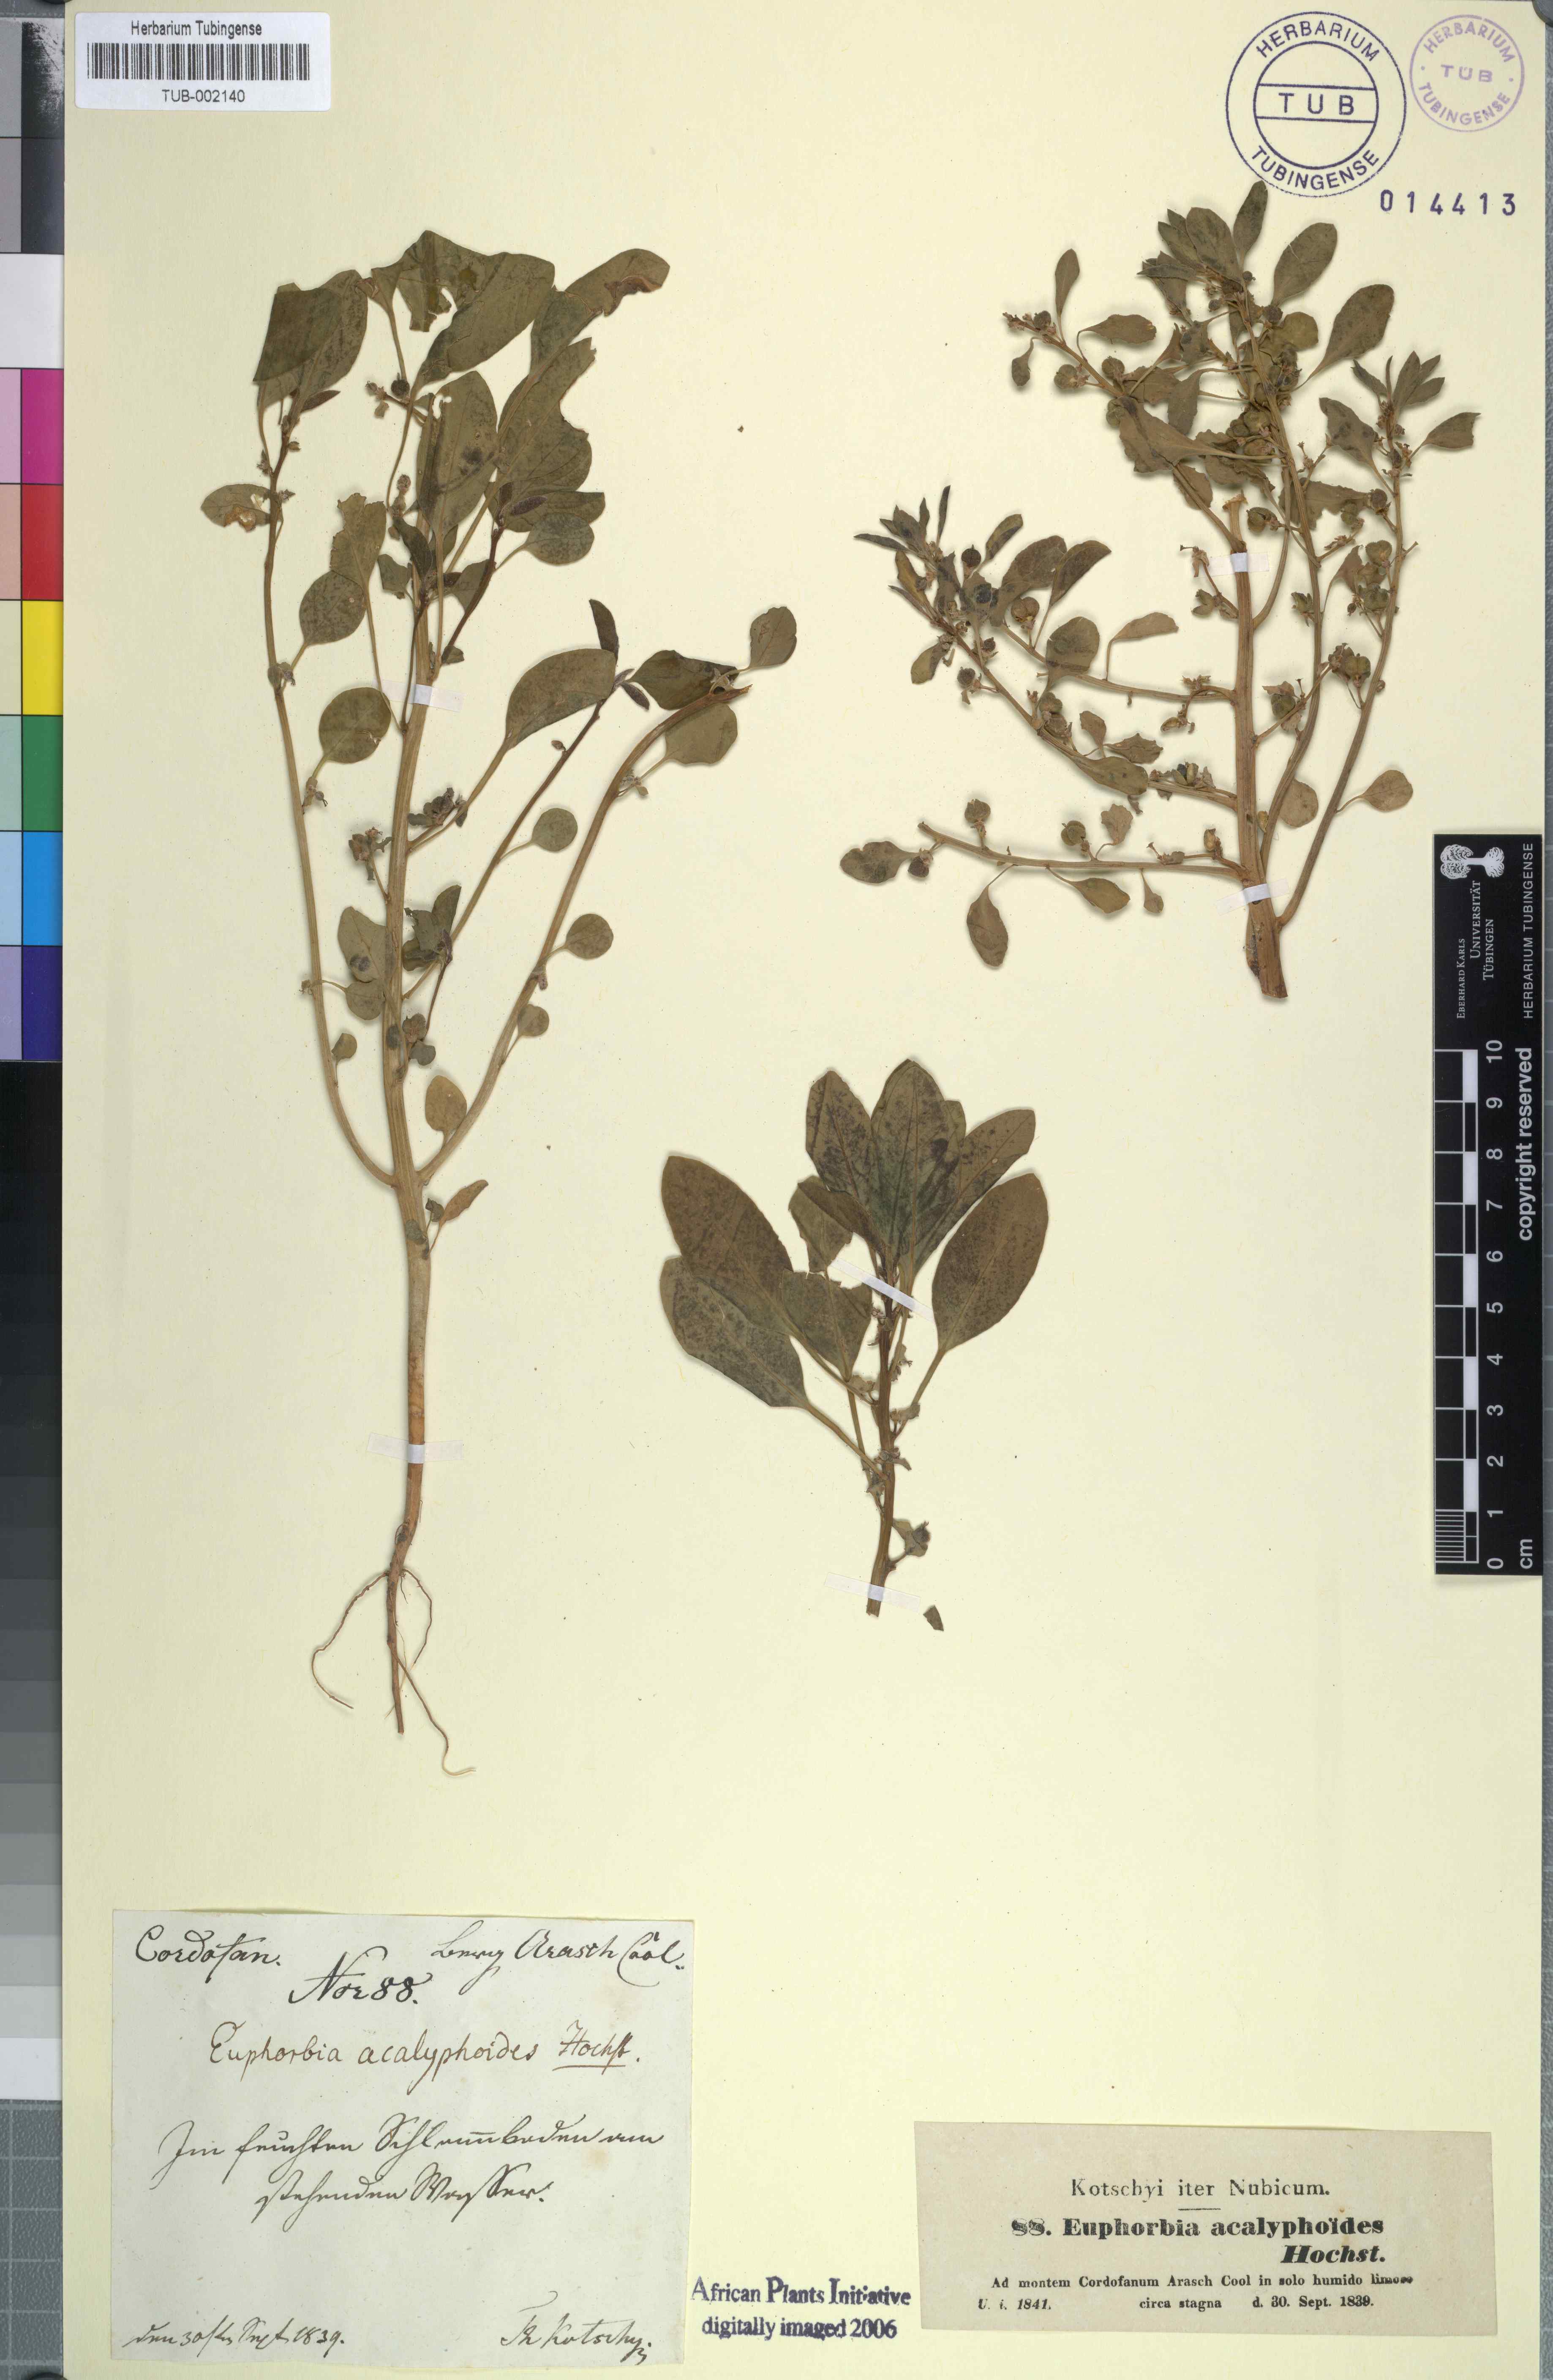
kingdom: Plantae
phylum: Tracheophyta
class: Magnoliopsida
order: Malpighiales
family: Euphorbiaceae
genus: Euphorbia
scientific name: Euphorbia acalyphoides
